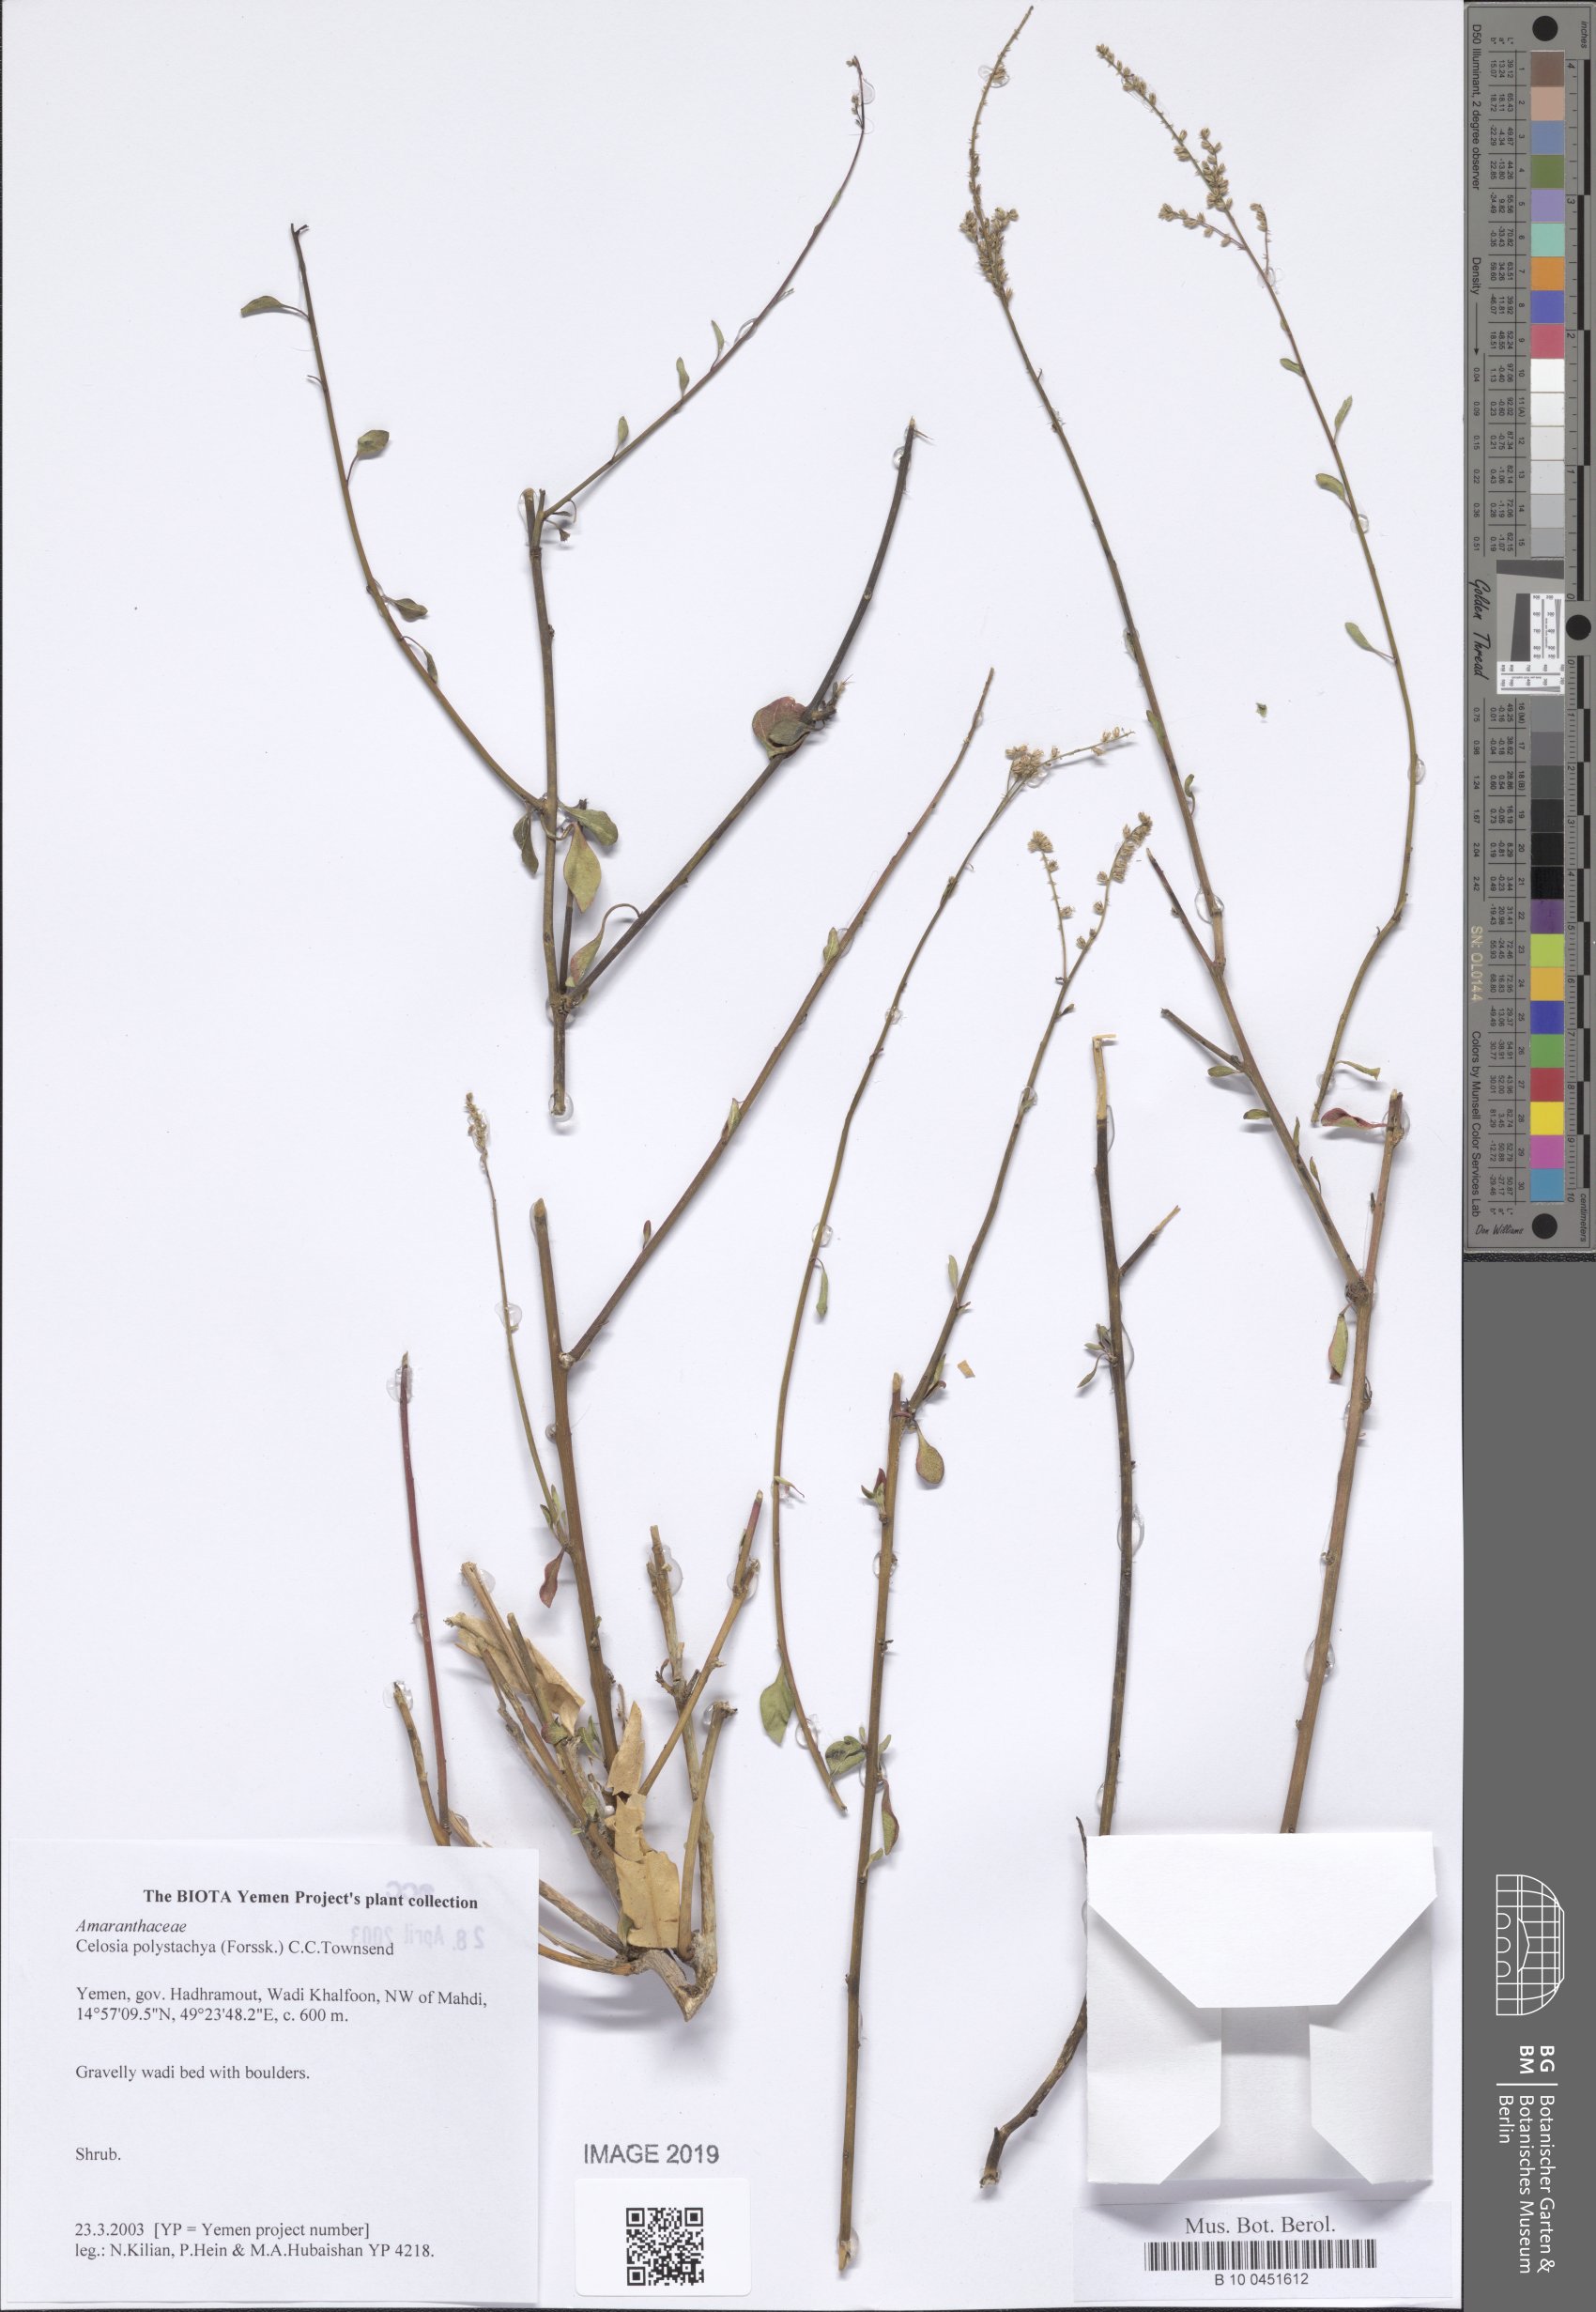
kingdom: Plantae
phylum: Tracheophyta
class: Magnoliopsida
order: Caryophyllales
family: Amaranthaceae
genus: Celosia
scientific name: Celosia polystachya
